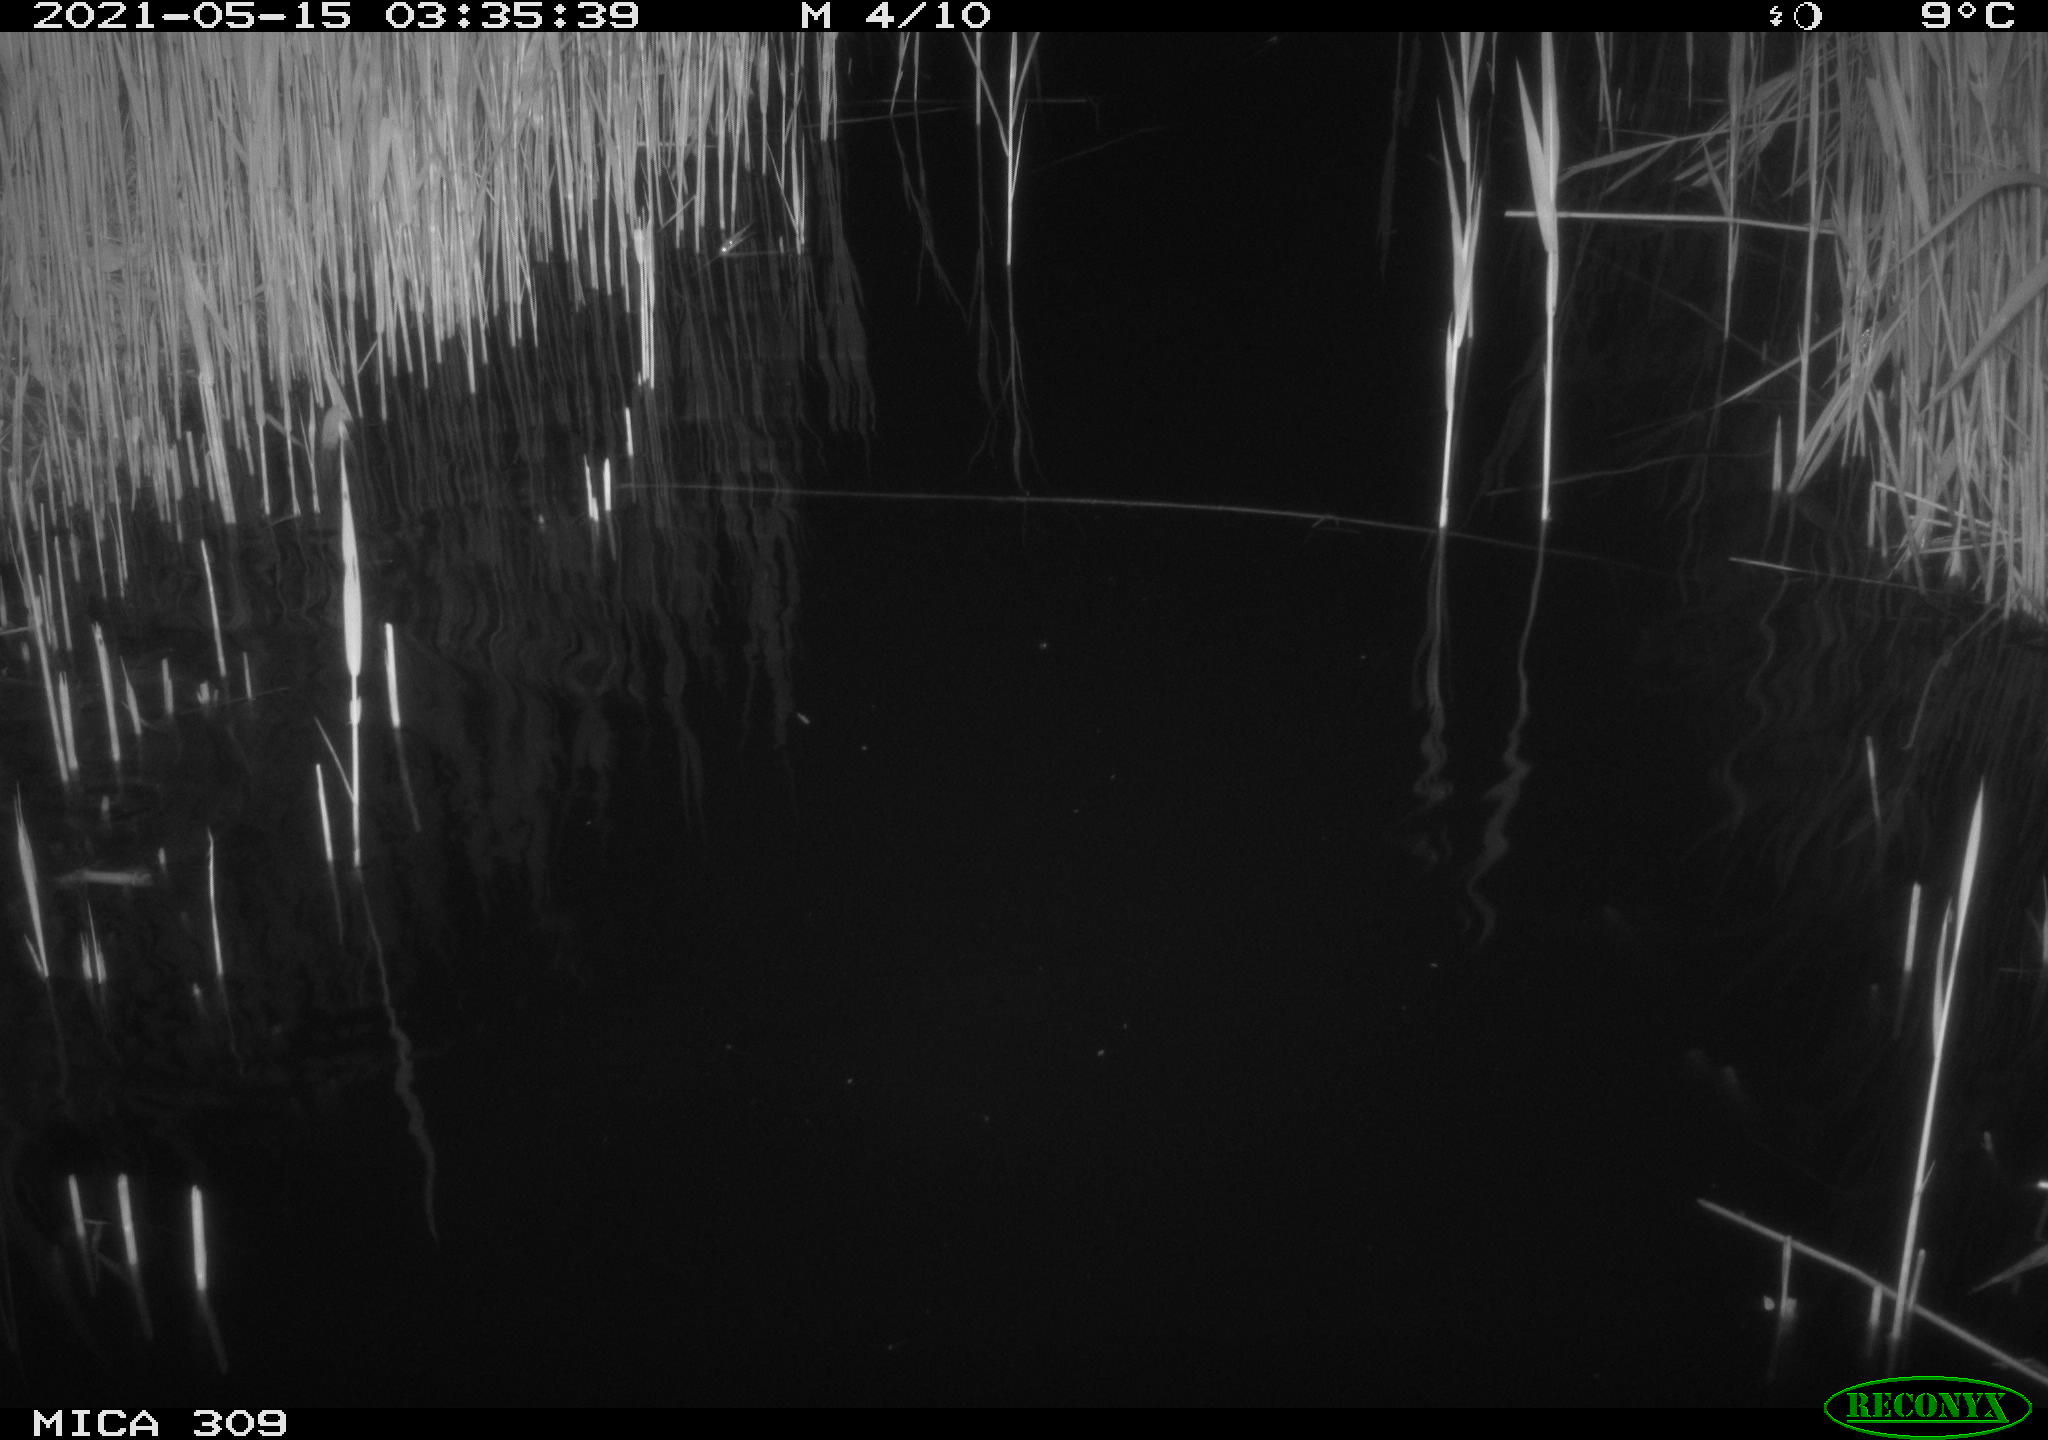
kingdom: Animalia
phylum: Chordata
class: Mammalia
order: Rodentia
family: Muridae
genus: Rattus
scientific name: Rattus norvegicus
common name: Brown rat
